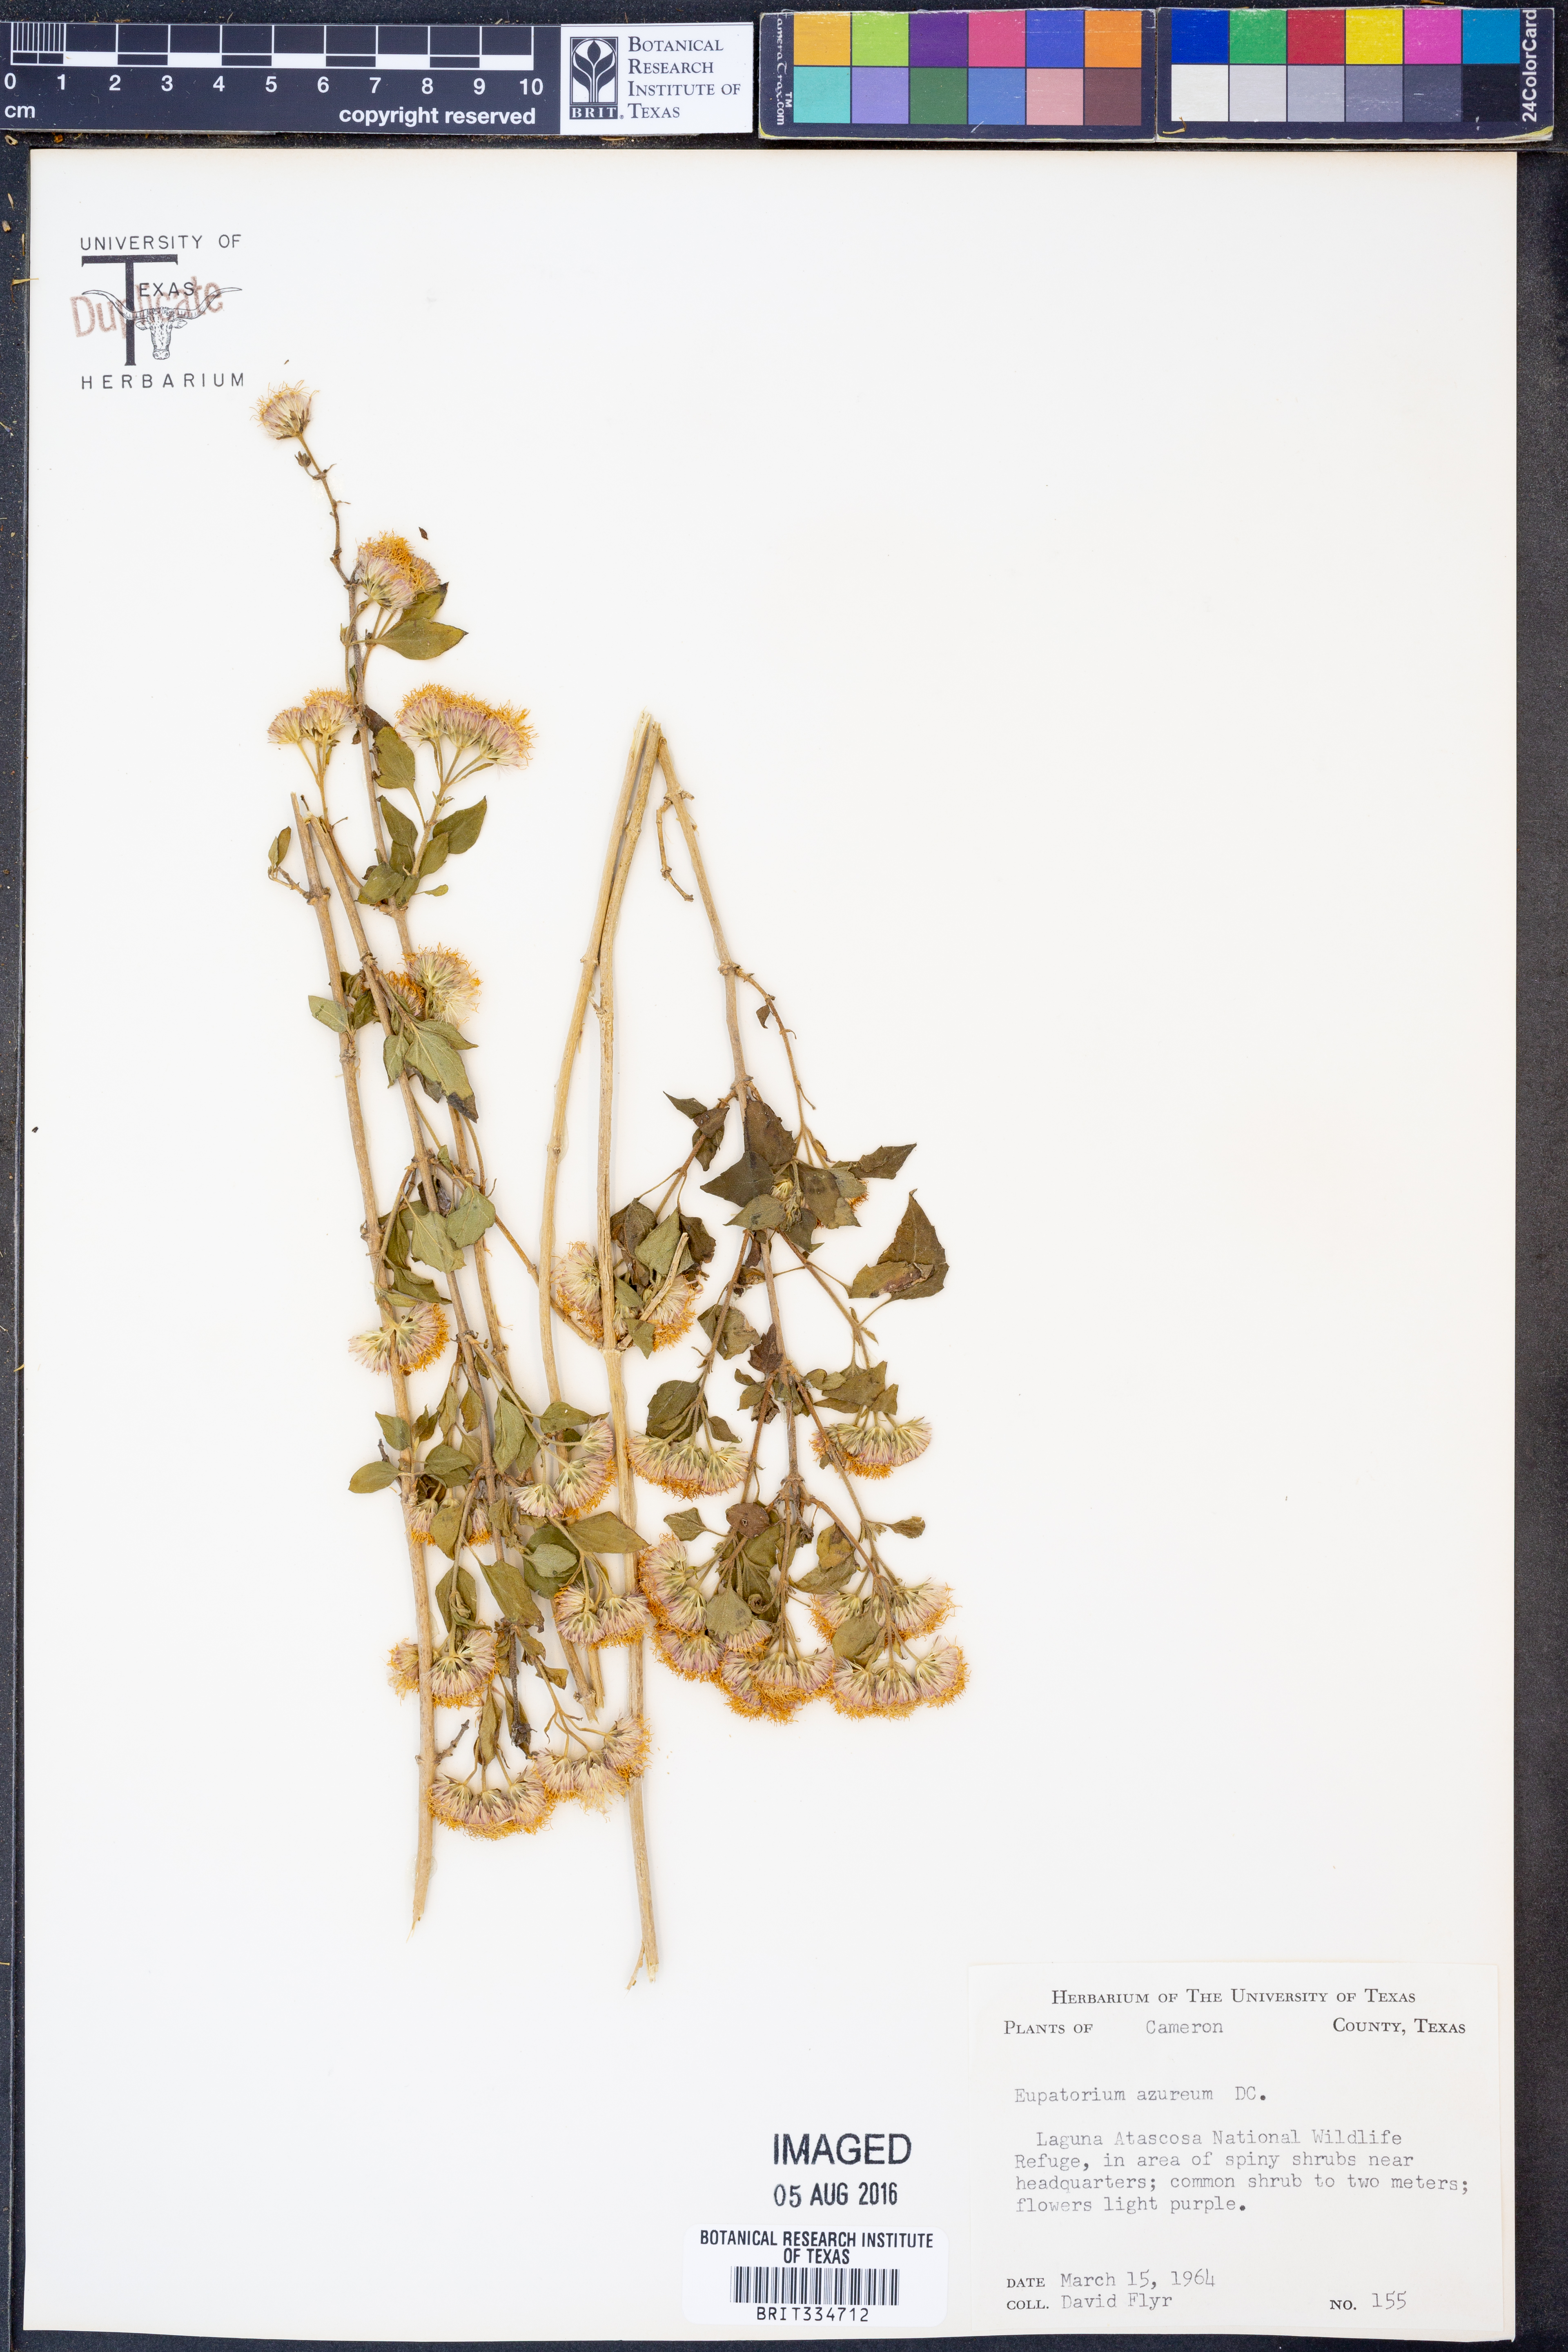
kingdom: Plantae
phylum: Tracheophyta
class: Magnoliopsida
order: Asterales
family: Asteraceae
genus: Tamaulipa
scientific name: Tamaulipa azurea
